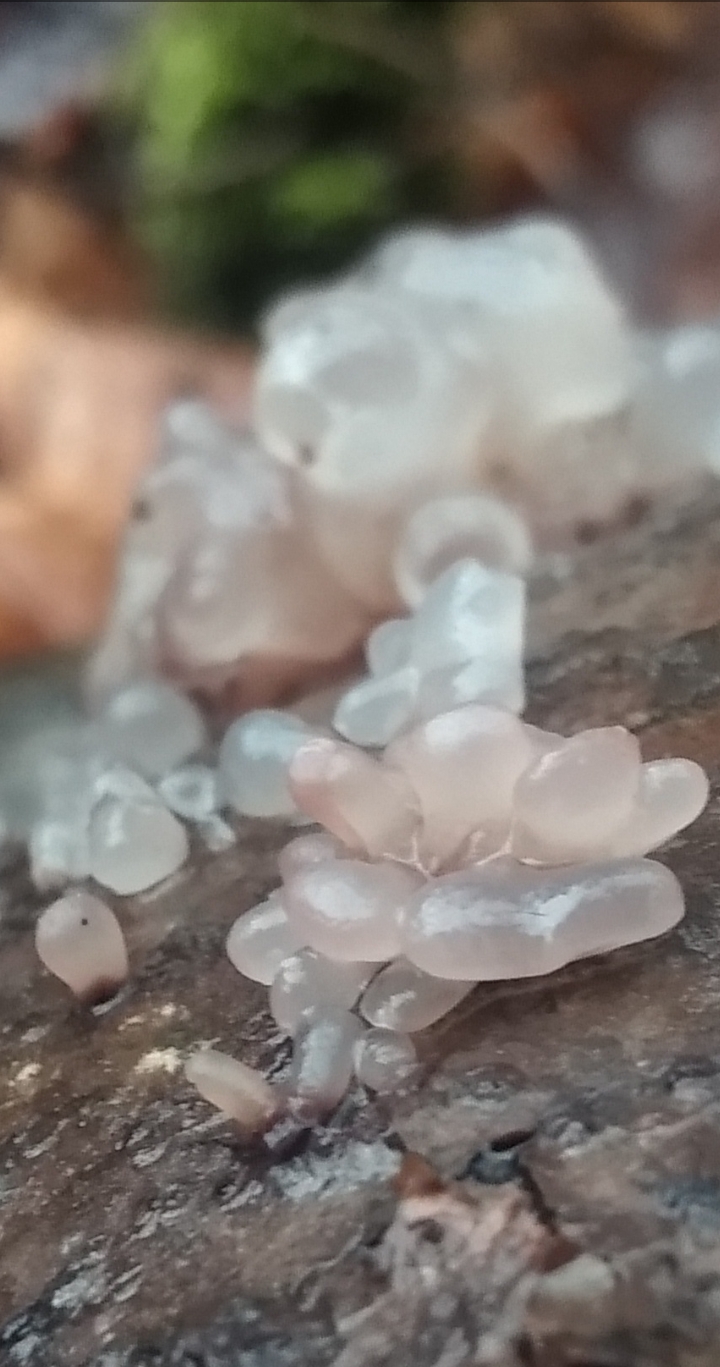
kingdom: Fungi
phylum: Ascomycota
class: Leotiomycetes
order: Helotiales
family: Gelatinodiscaceae
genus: Neobulgaria
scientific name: Neobulgaria pura
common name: bleg bævreskive
